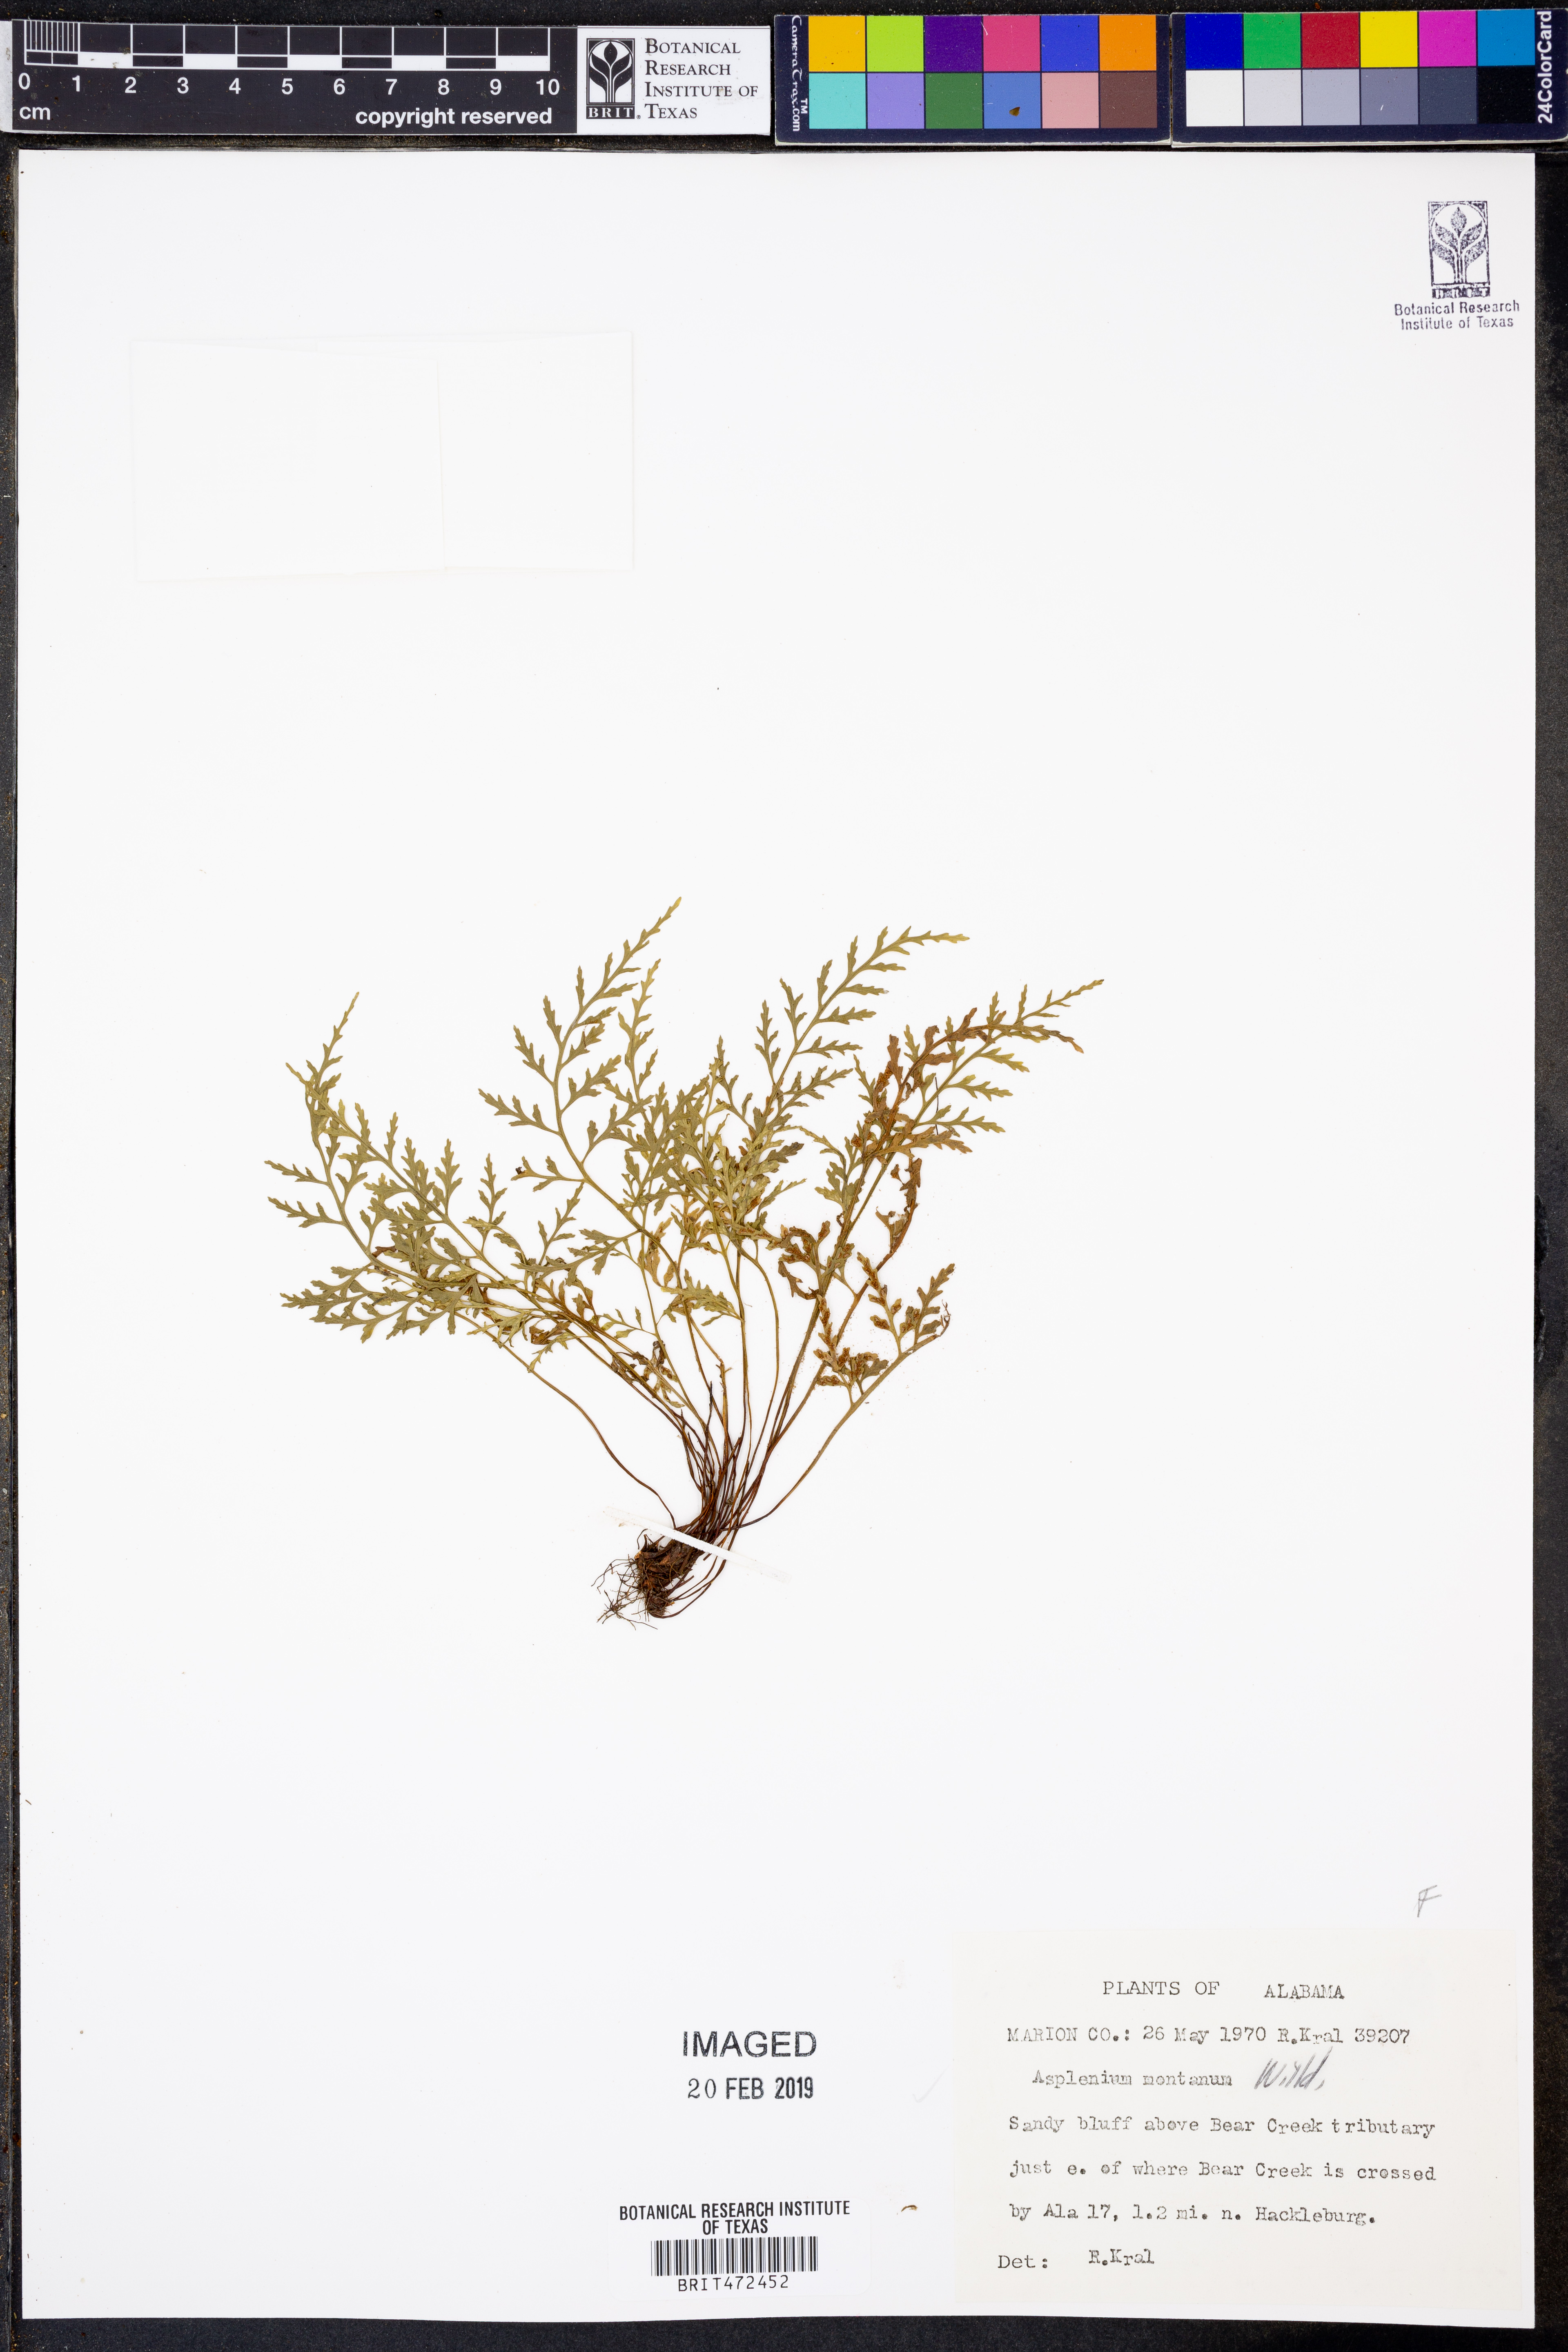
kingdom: Plantae
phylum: Tracheophyta
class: Polypodiopsida
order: Polypodiales
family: Aspleniaceae
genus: Asplenium
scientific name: Asplenium montanum
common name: Mountain spleenwort
